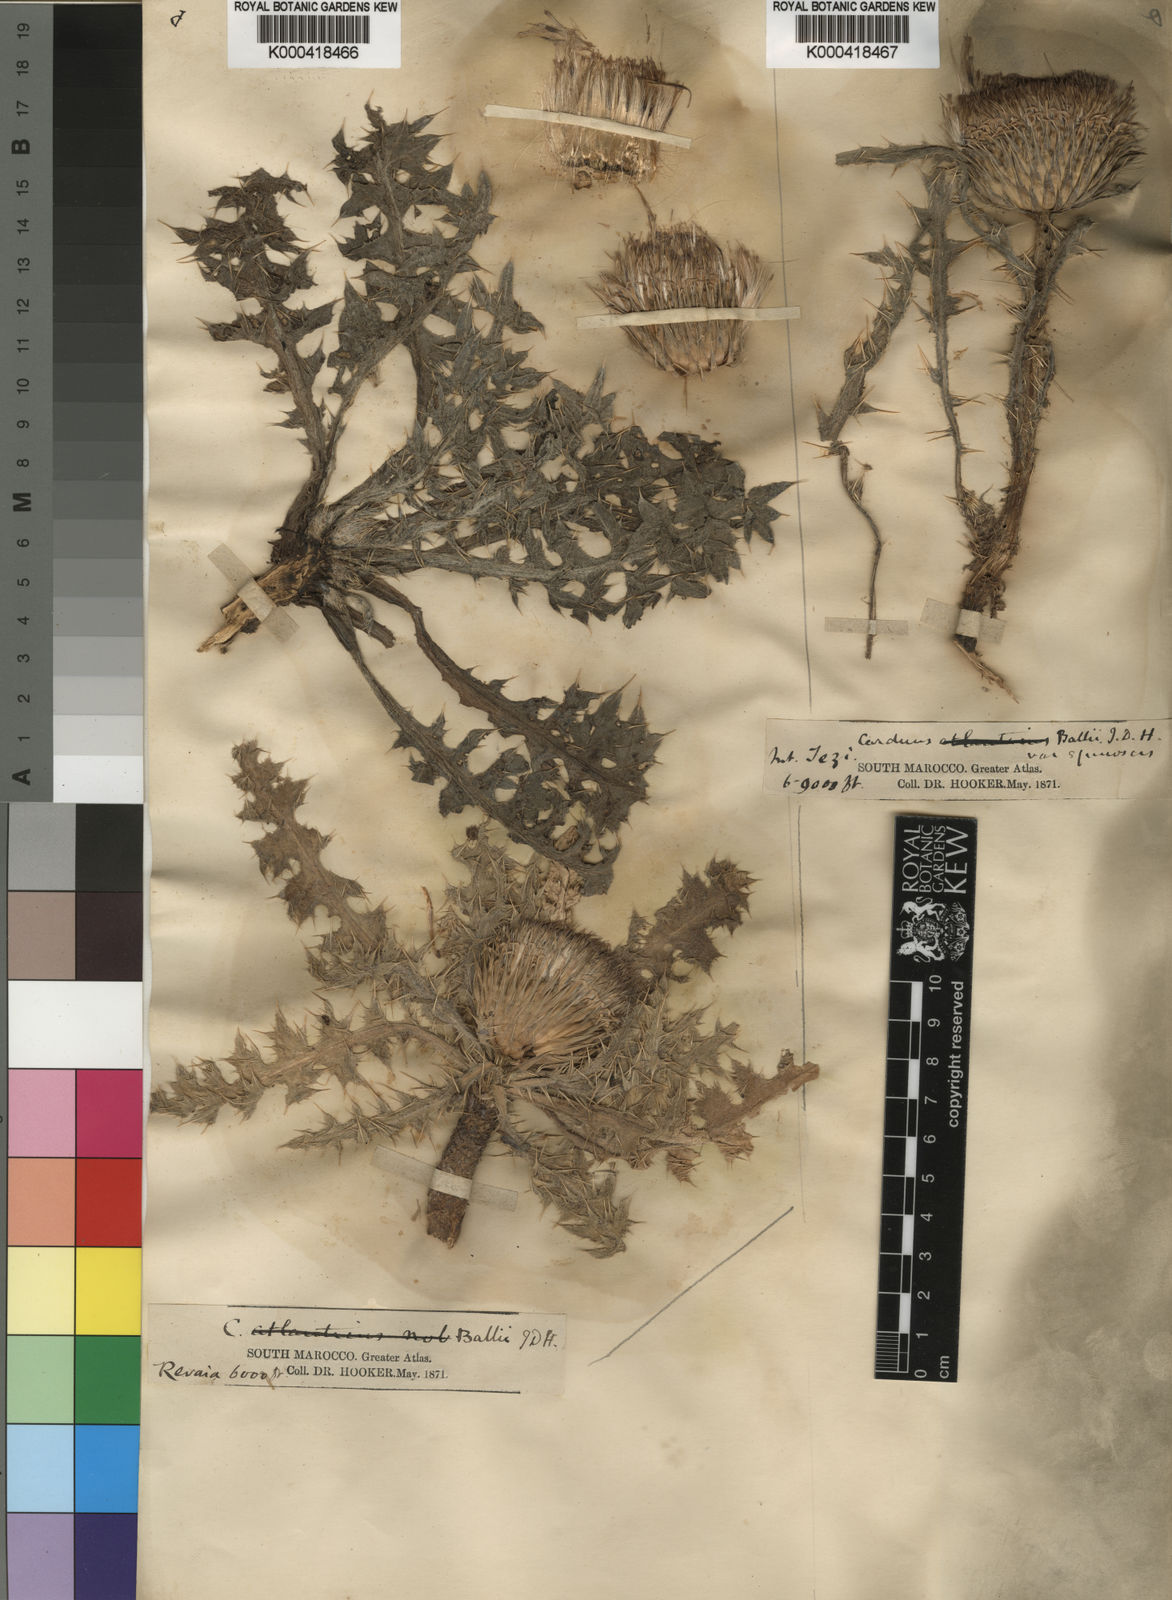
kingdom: Plantae
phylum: Tracheophyta
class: Magnoliopsida
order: Asterales
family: Asteraceae
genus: Carduus
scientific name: Carduus ballii
